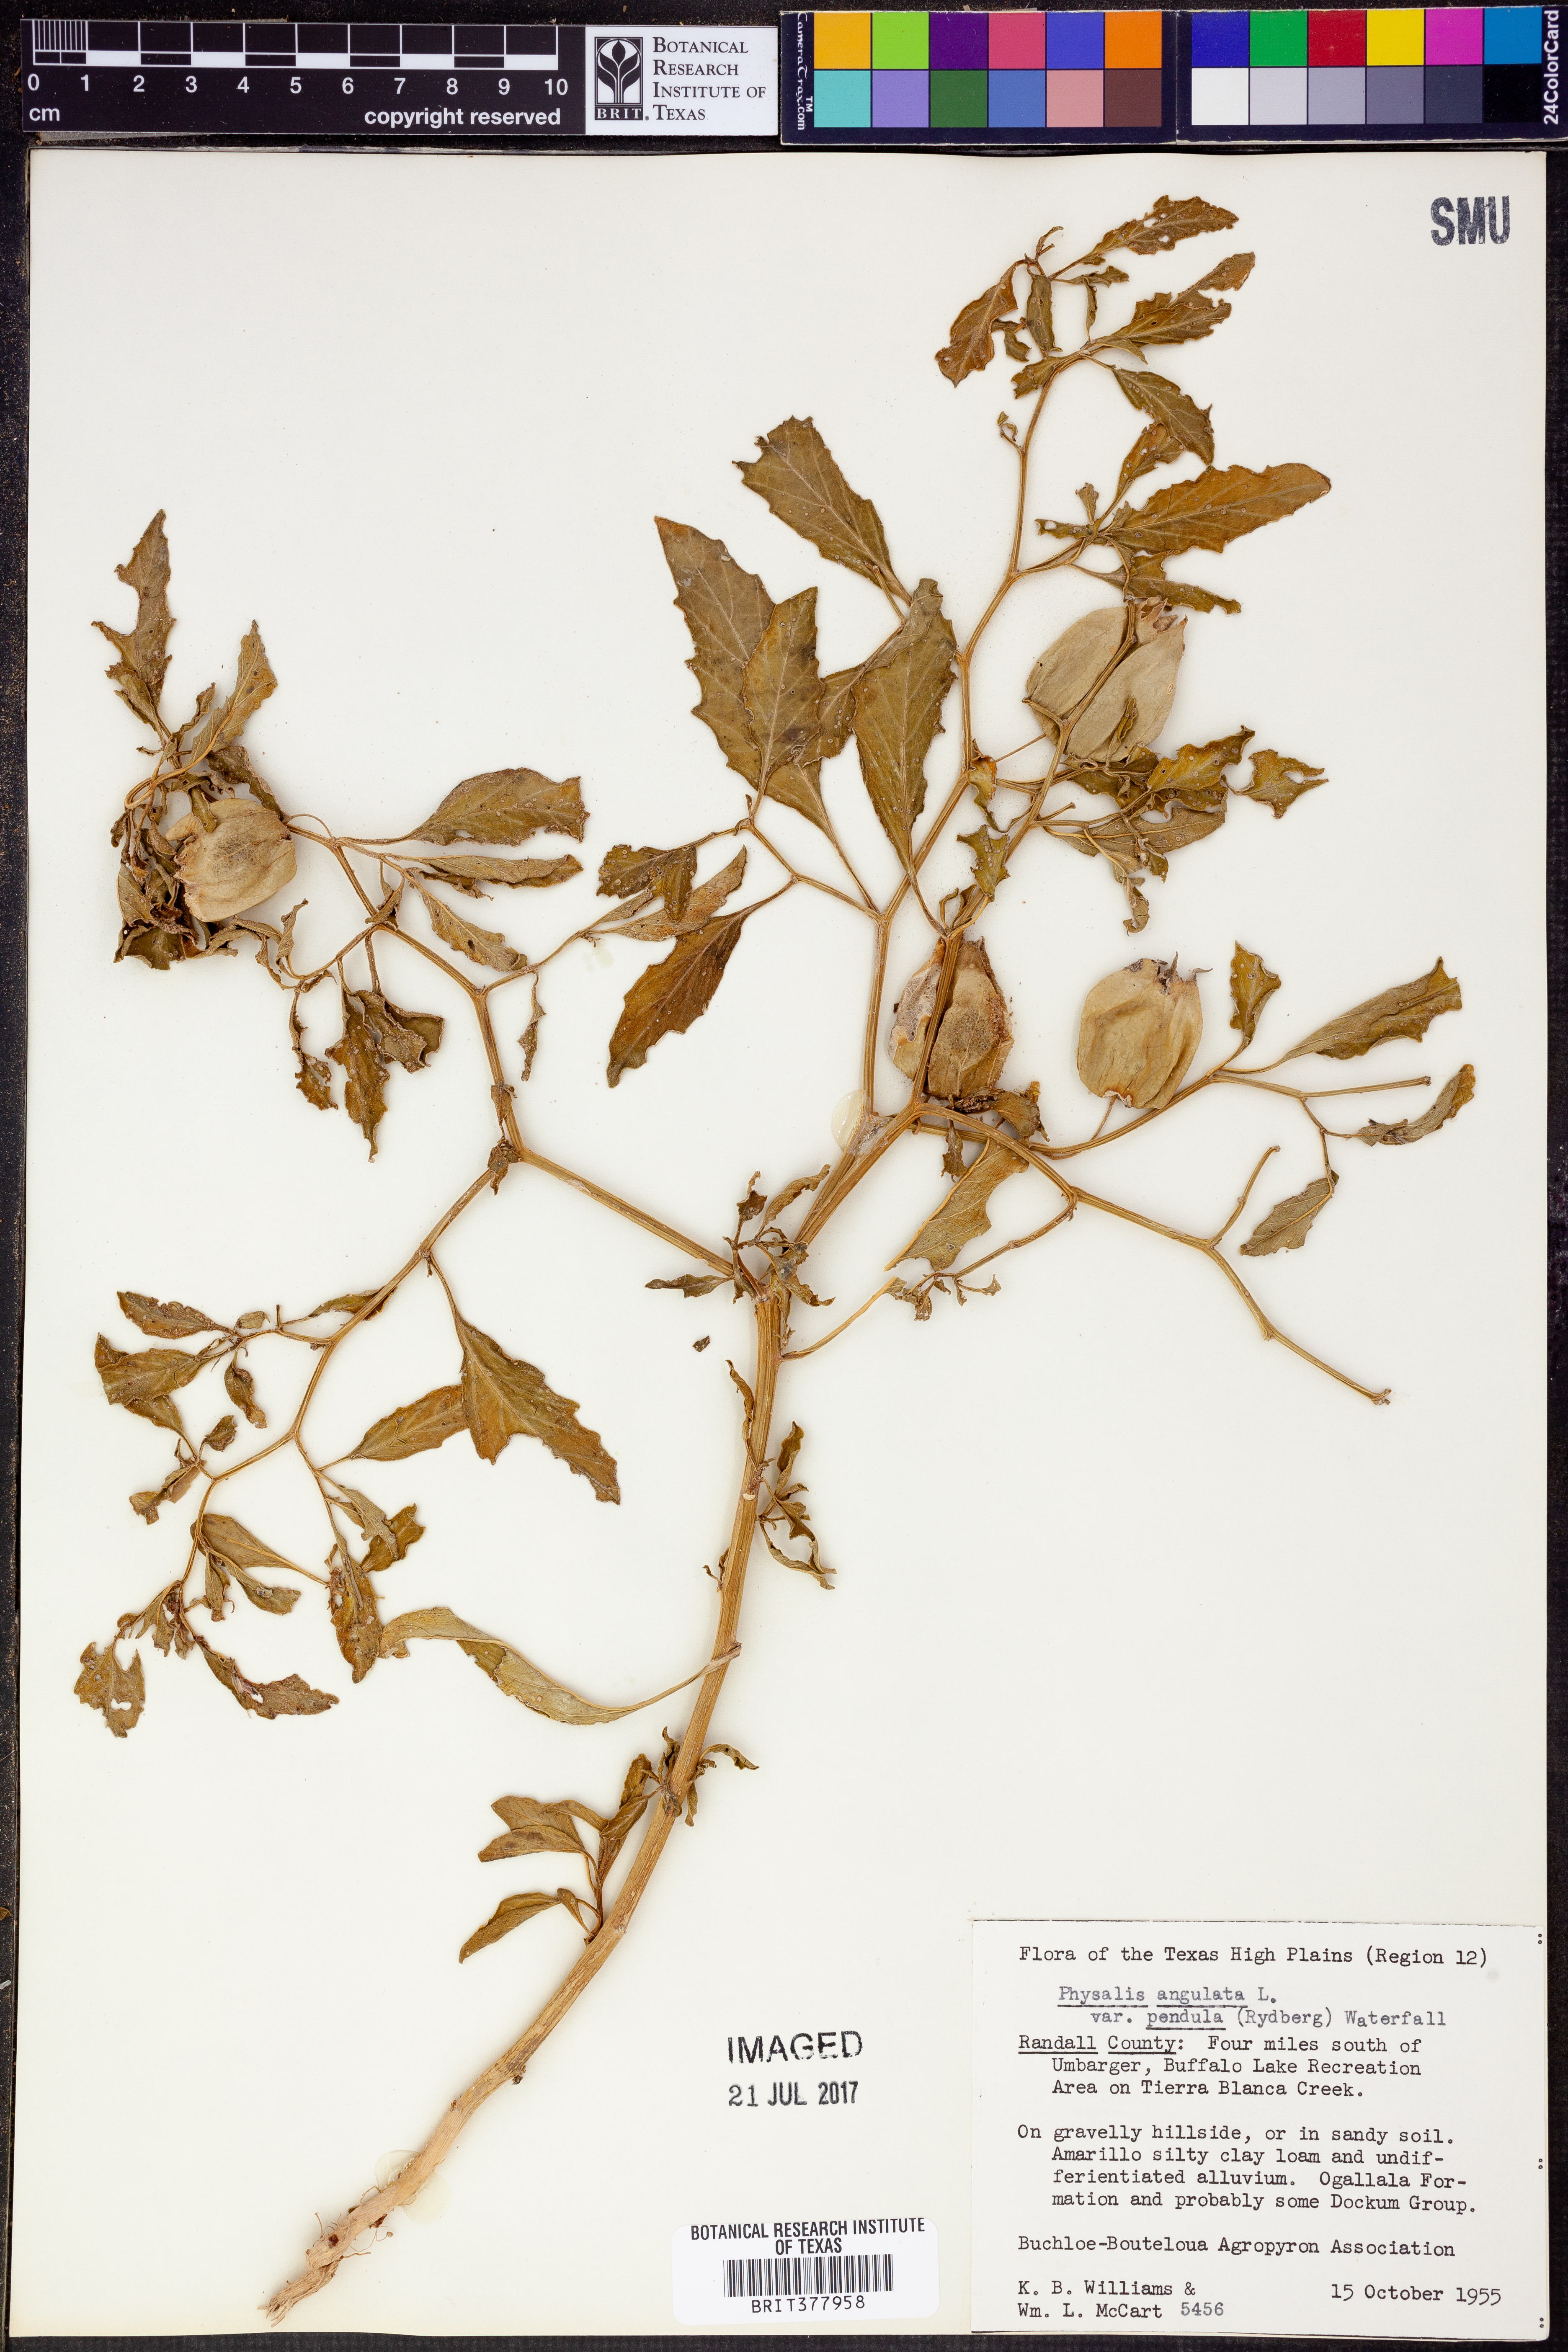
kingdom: Plantae
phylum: Tracheophyta
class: Magnoliopsida
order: Solanales
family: Solanaceae
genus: Physalis
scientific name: Physalis angulata
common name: Angular winter-cherry
